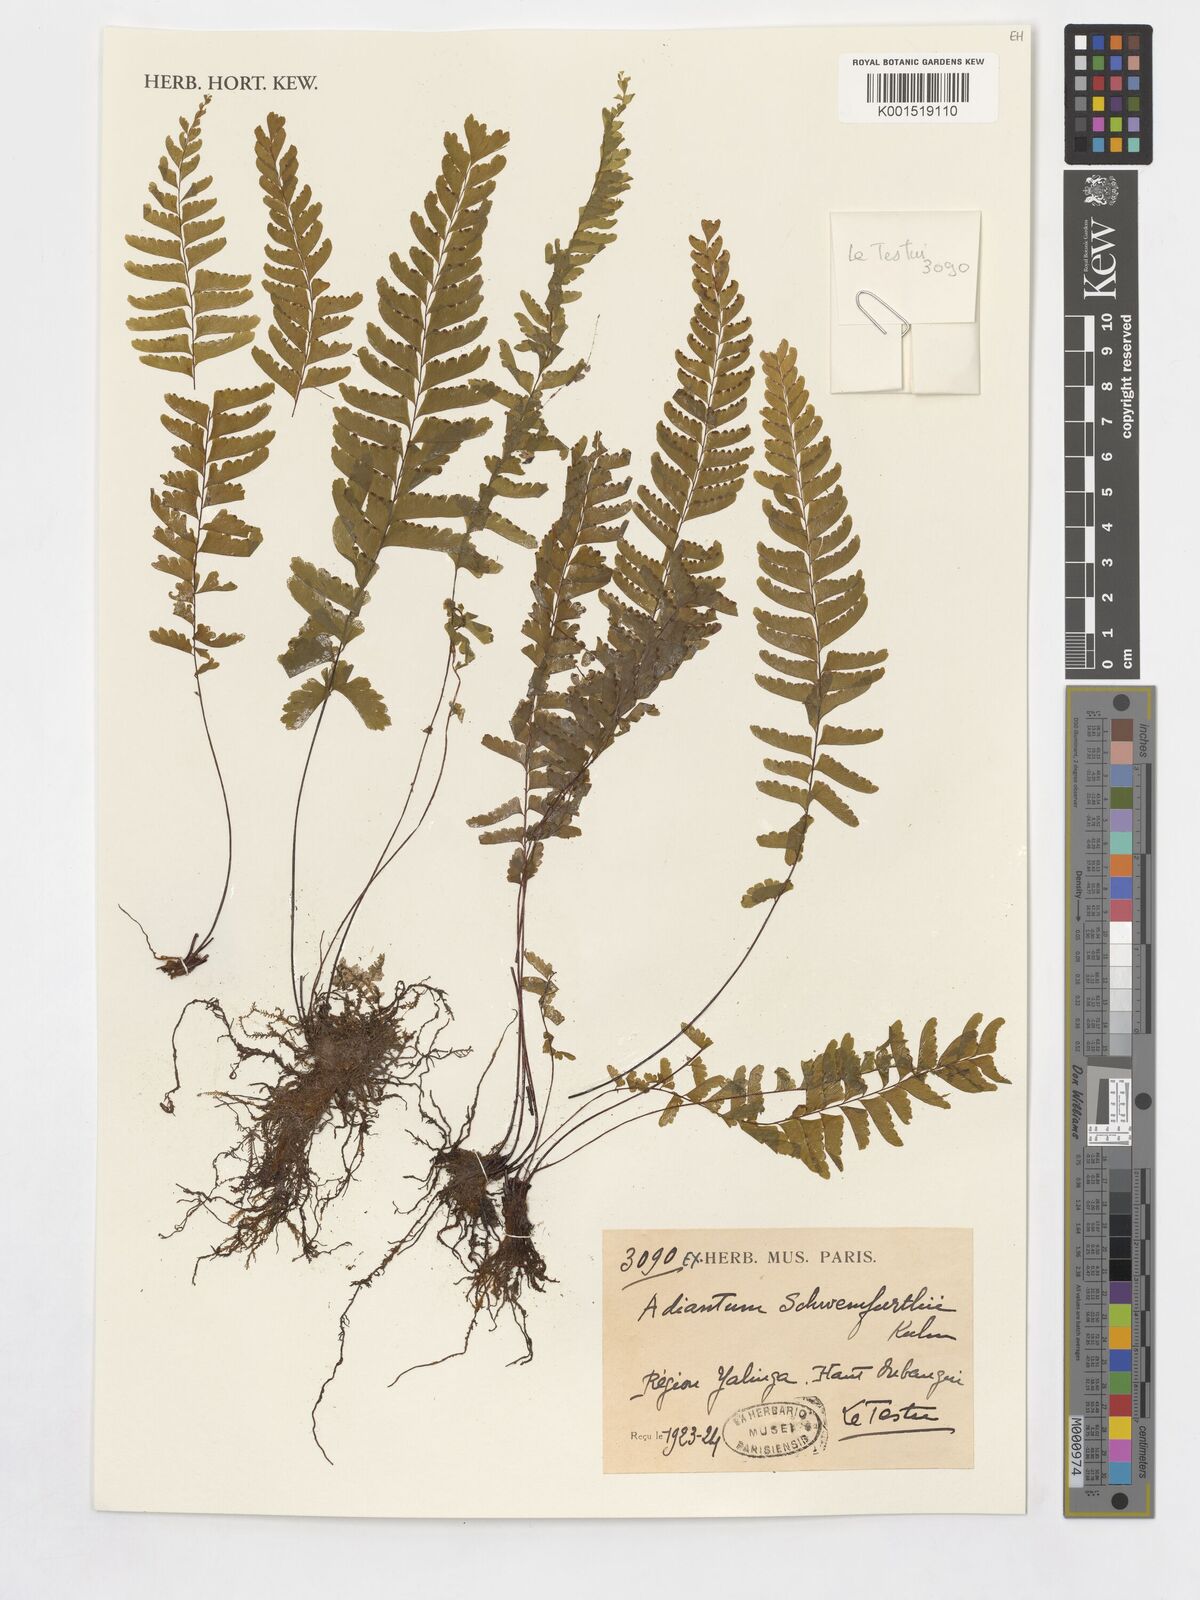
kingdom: Plantae
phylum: Tracheophyta
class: Polypodiopsida
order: Polypodiales
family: Pteridaceae
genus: Adiantum
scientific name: Adiantum schweinfurthii
